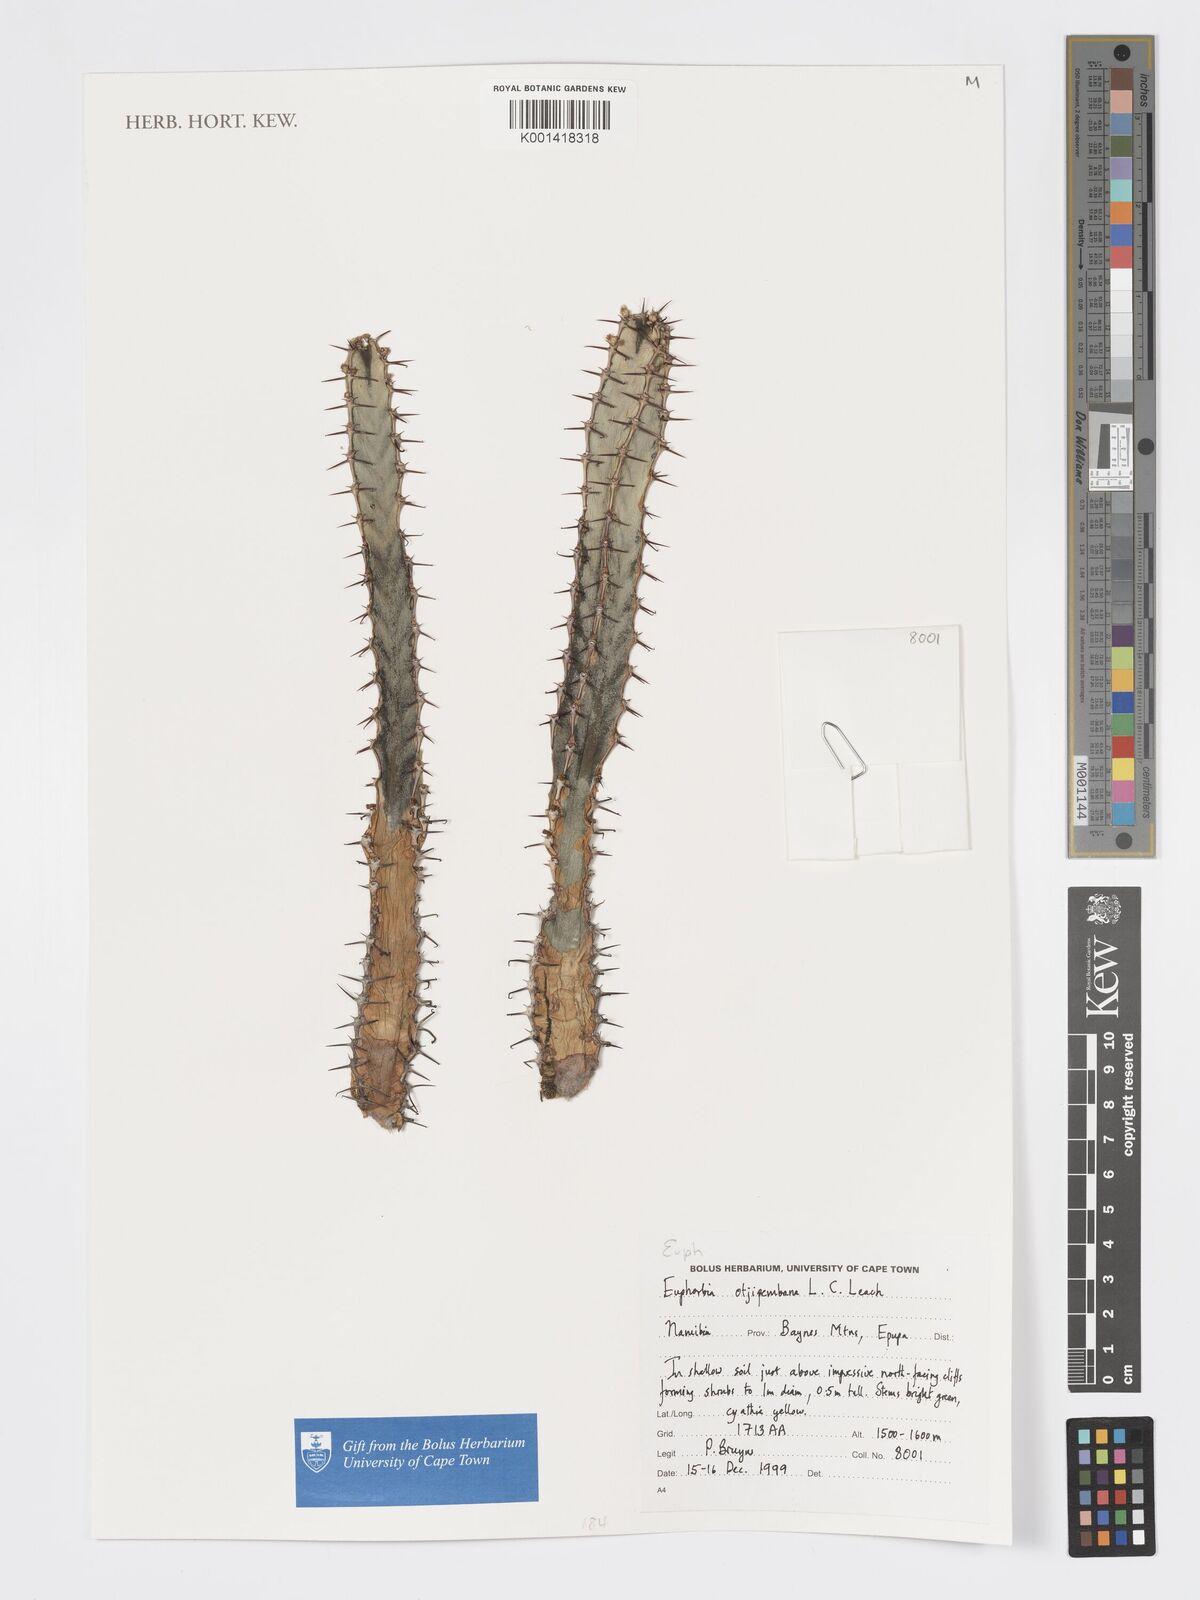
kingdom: Plantae
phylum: Tracheophyta
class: Magnoliopsida
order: Malpighiales
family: Euphorbiaceae
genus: Euphorbia
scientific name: Euphorbia otjipembana
